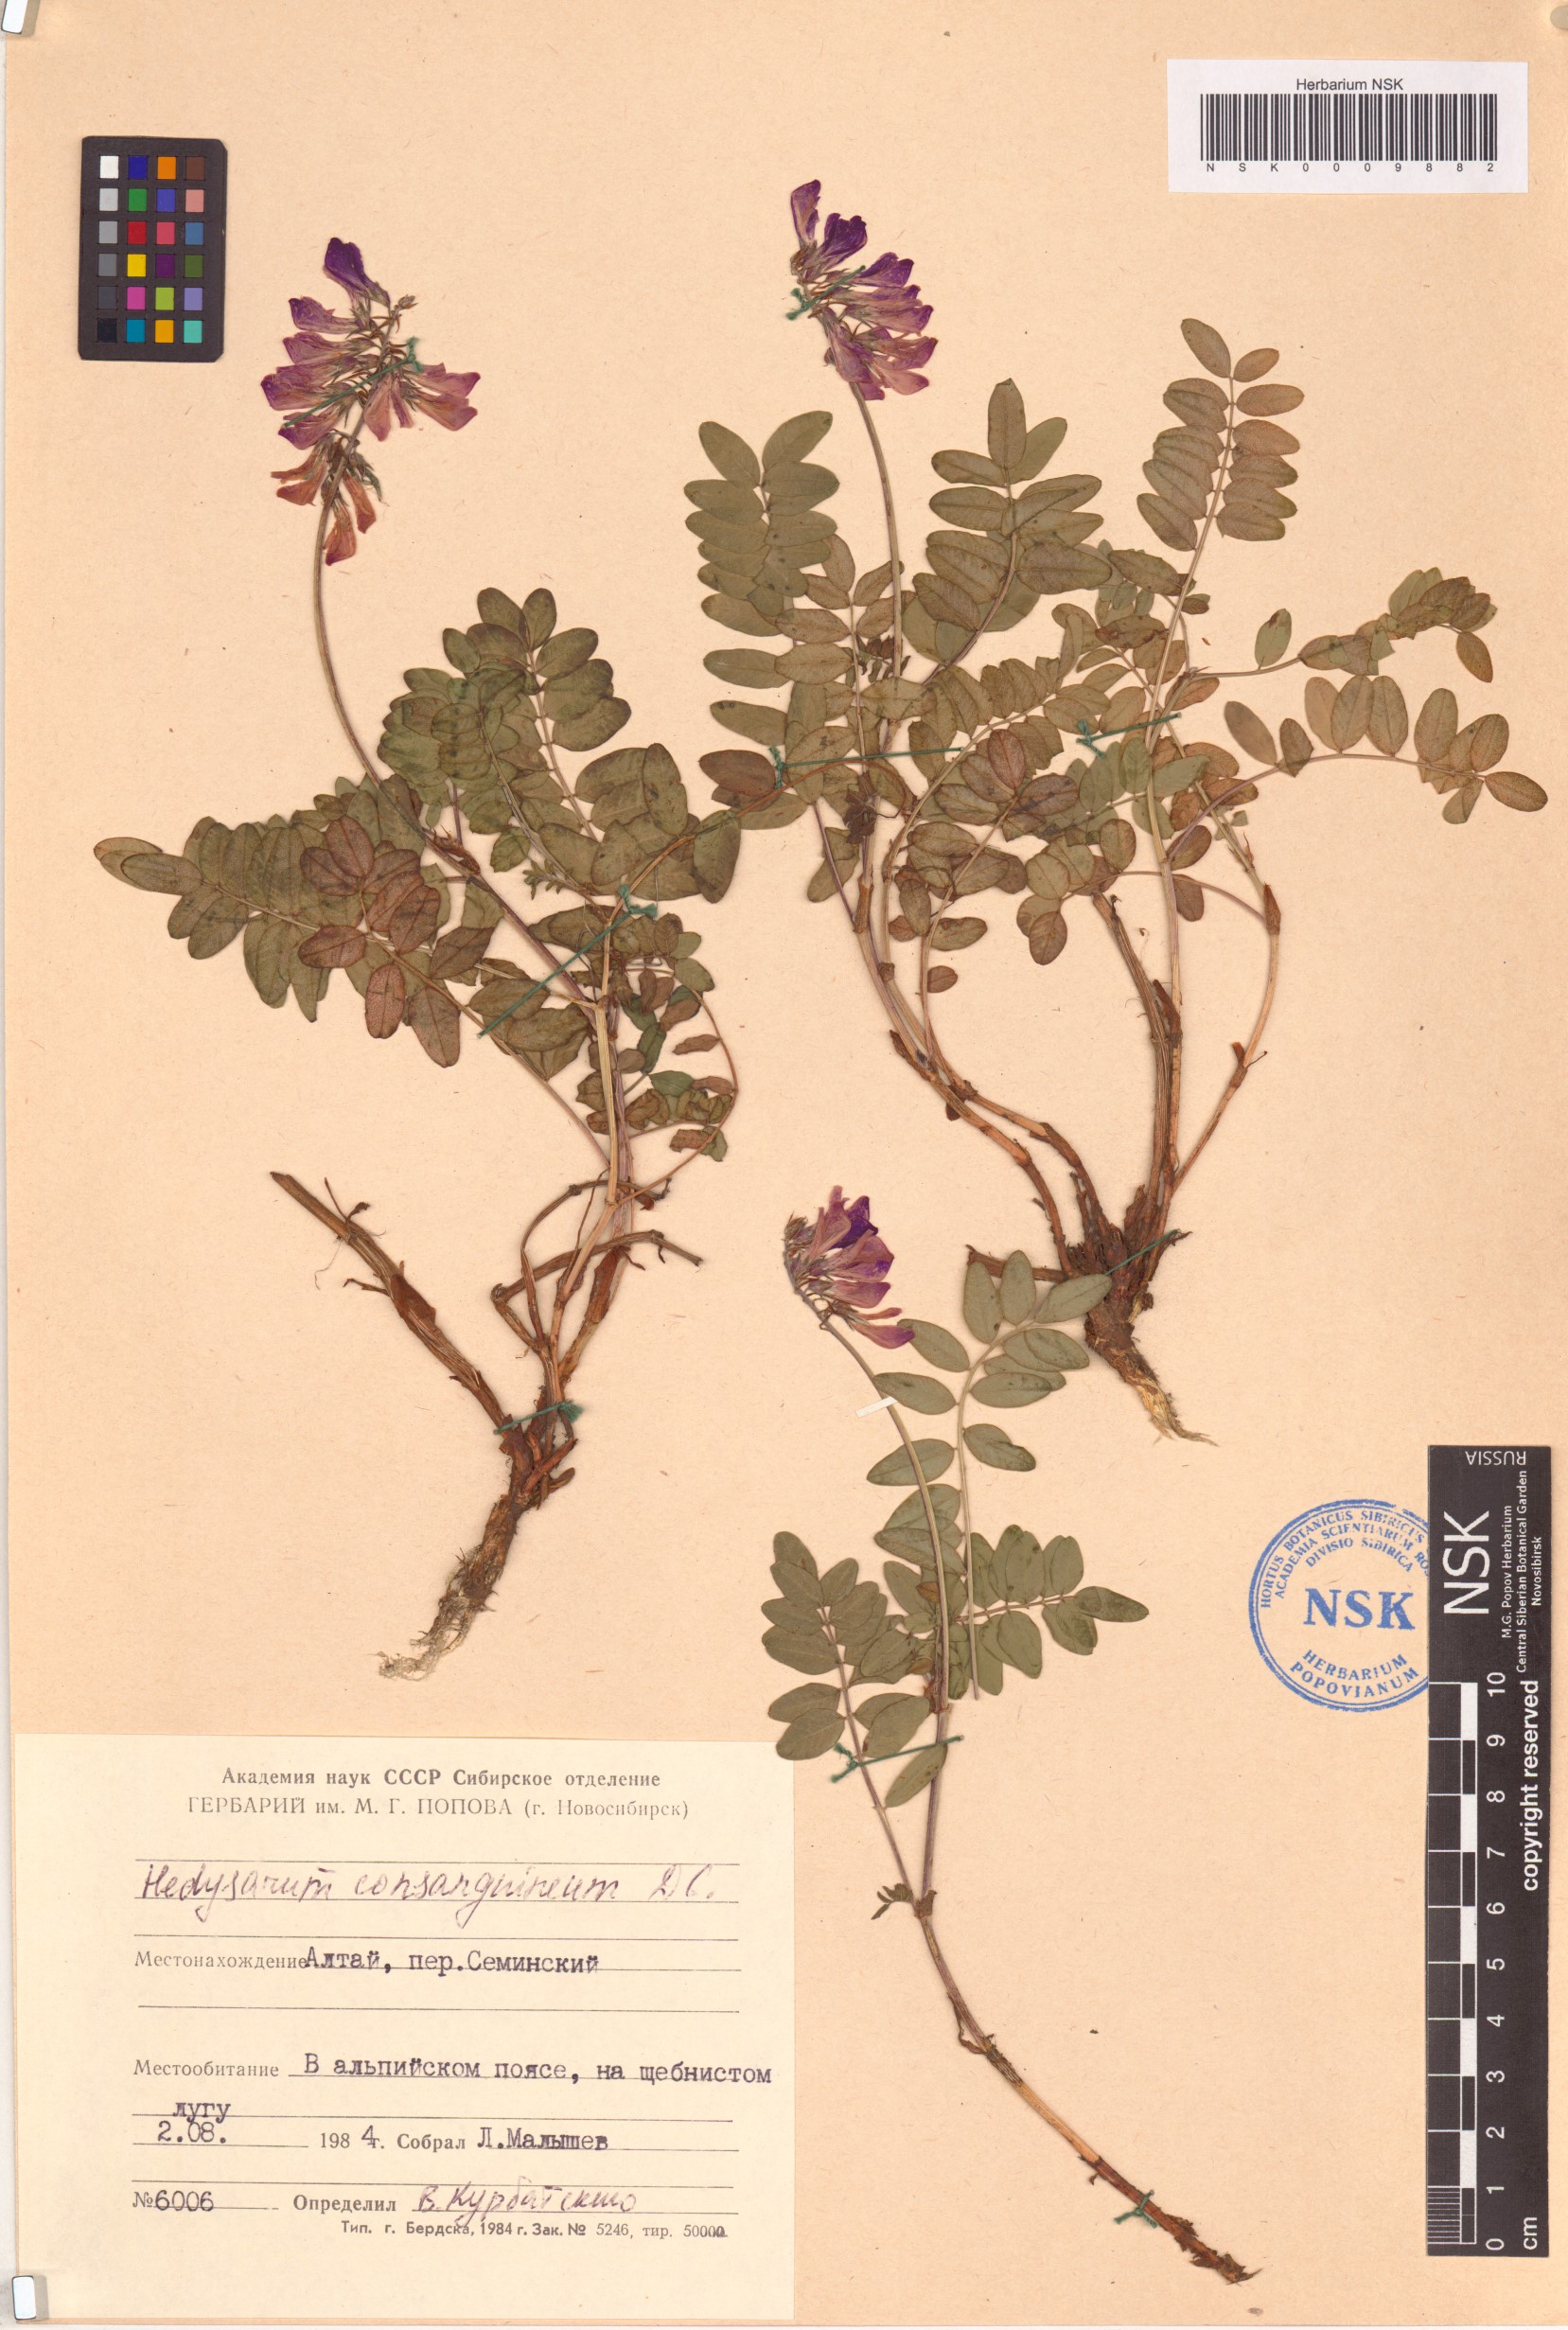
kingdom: Plantae
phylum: Tracheophyta
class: Magnoliopsida
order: Fabales
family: Fabaceae
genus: Hedysarum
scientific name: Hedysarum consanguineum
